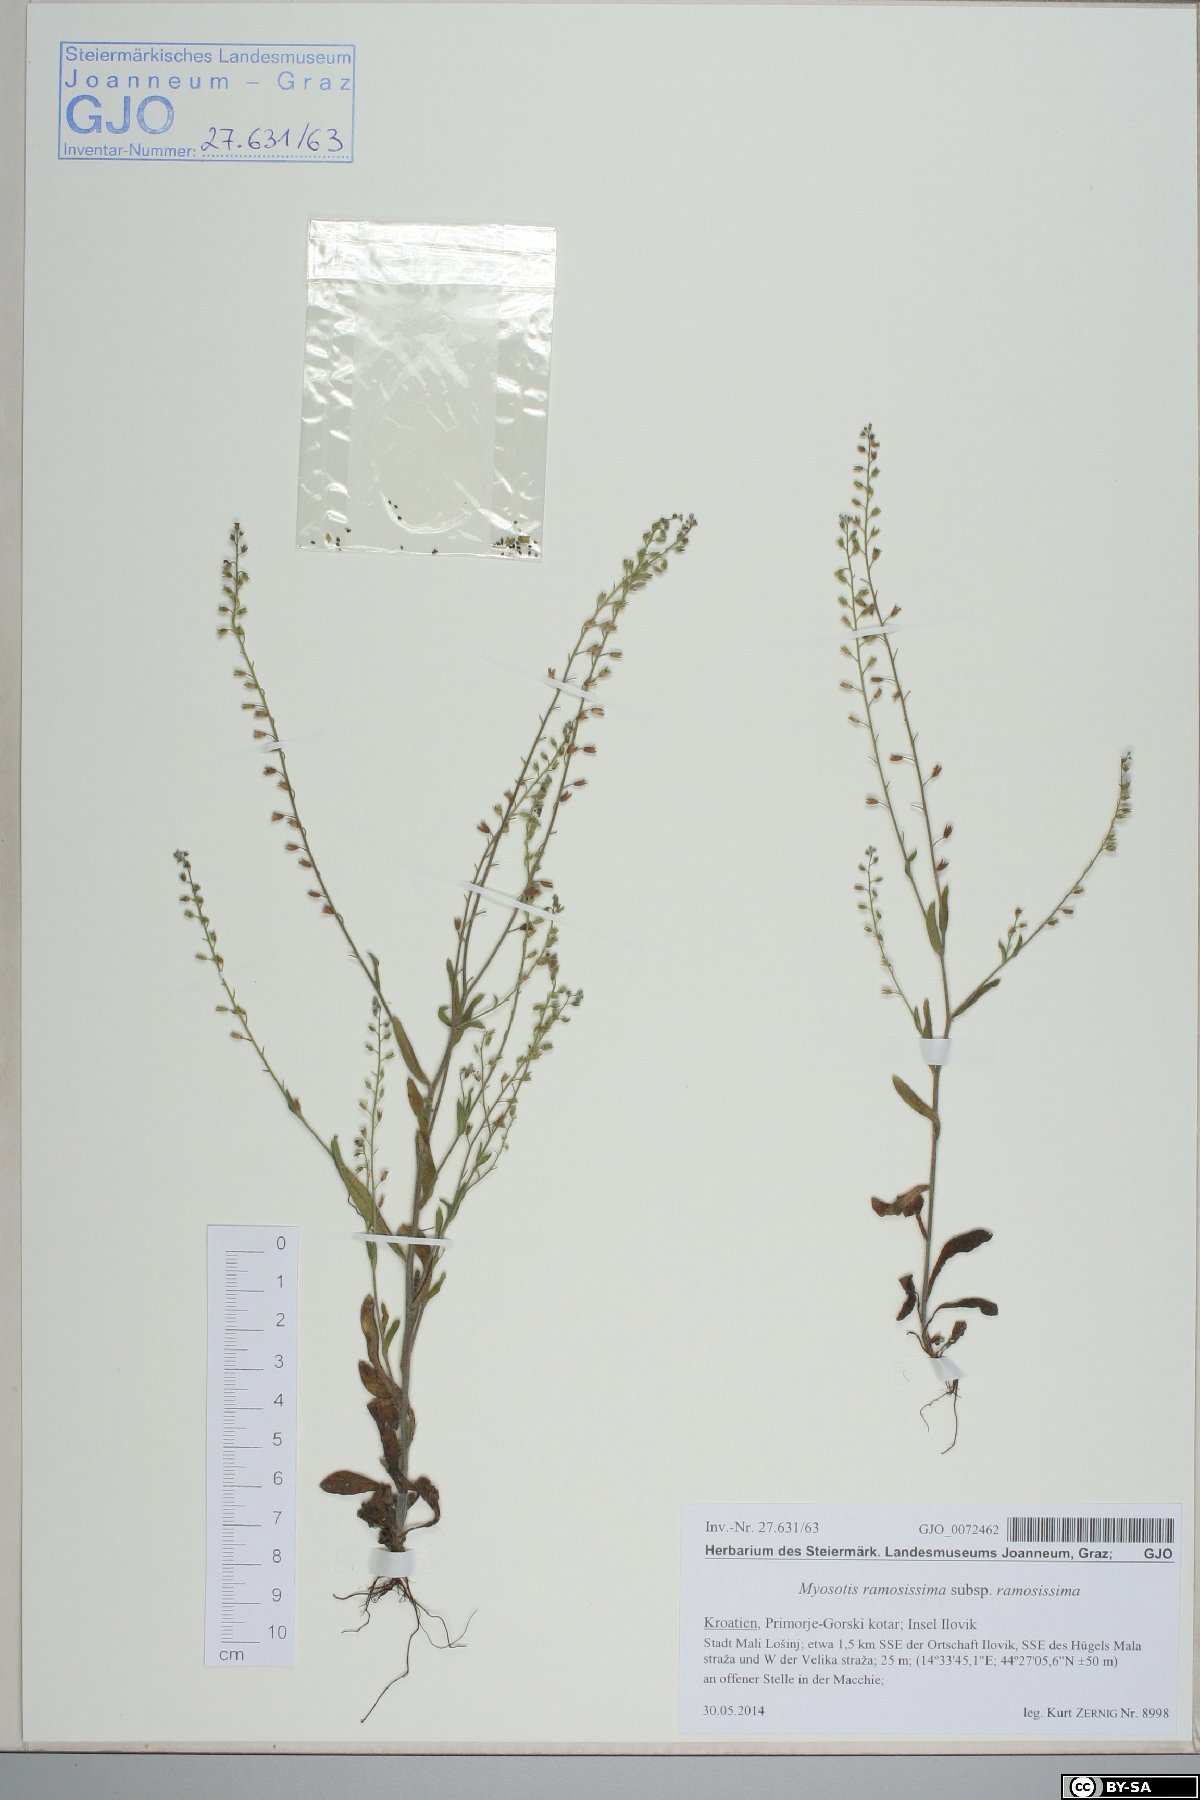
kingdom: Plantae
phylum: Tracheophyta
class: Magnoliopsida
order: Boraginales
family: Boraginaceae
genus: Myosotis
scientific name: Myosotis ramosissima
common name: Early forget-me-not
